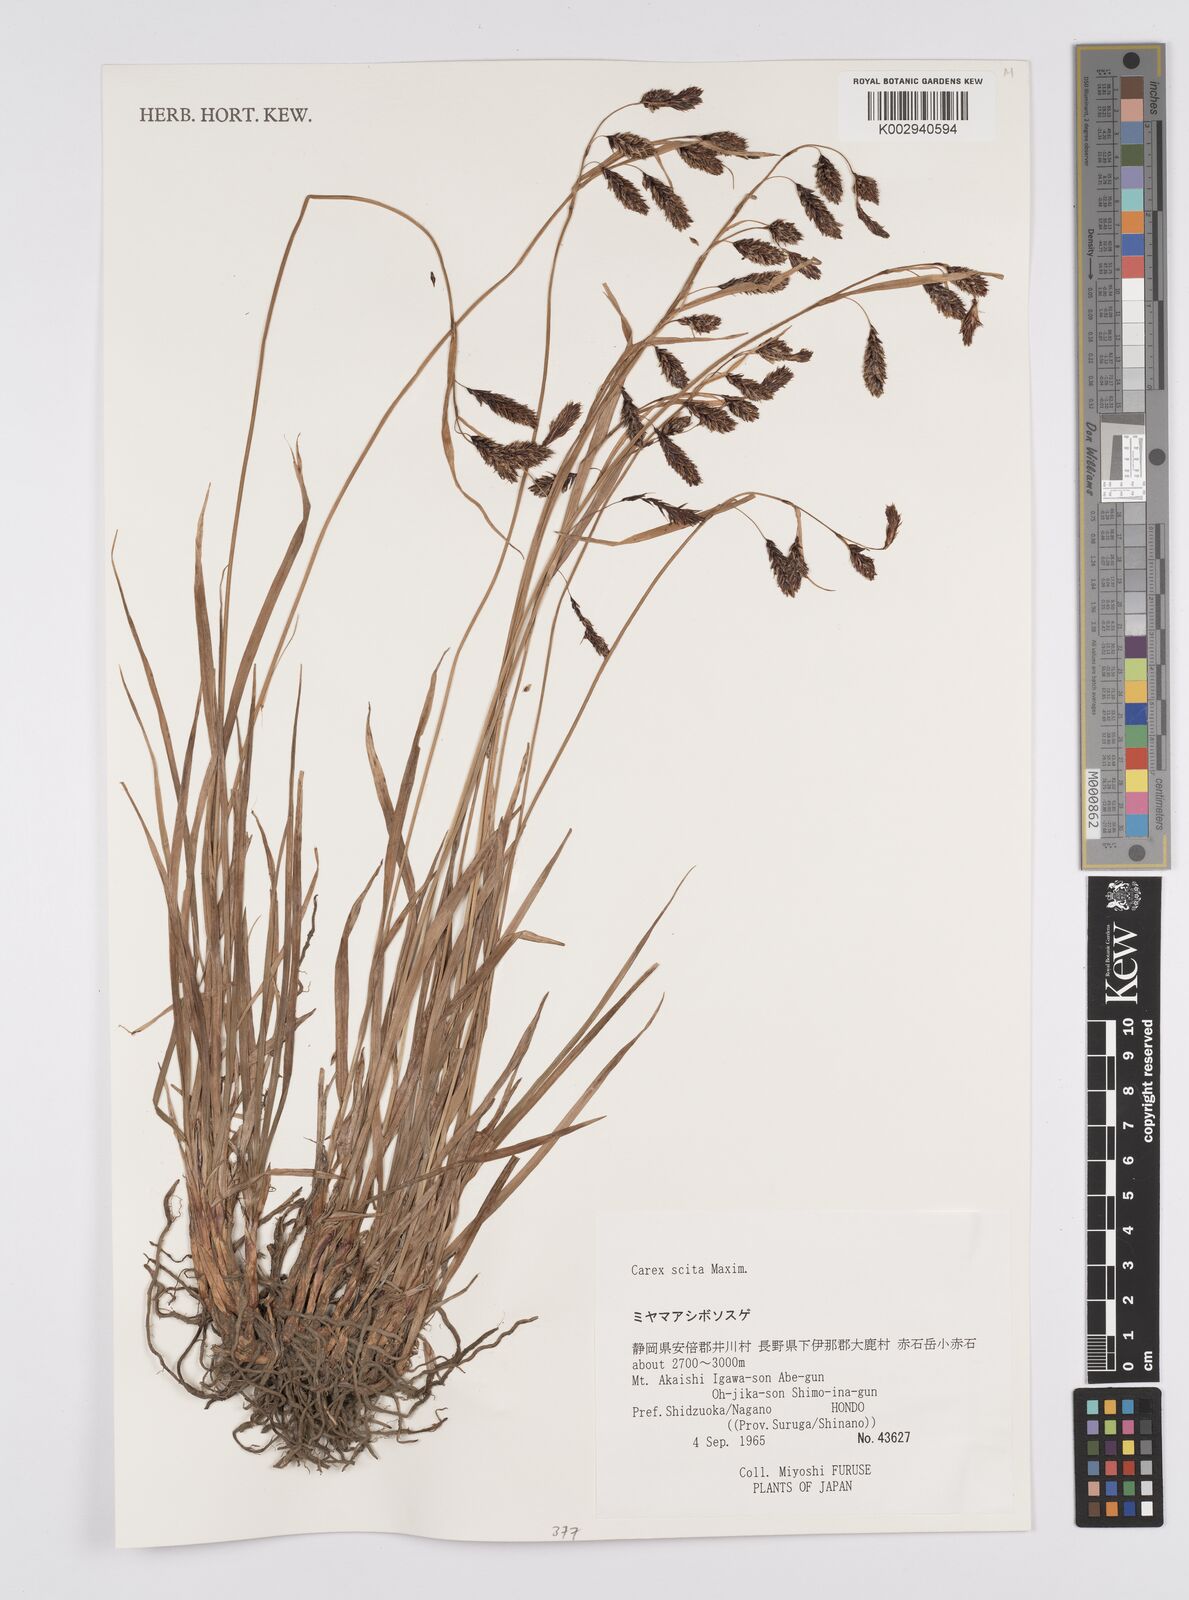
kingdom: Plantae
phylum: Tracheophyta
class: Liliopsida
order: Poales
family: Cyperaceae
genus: Carex
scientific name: Carex scita
